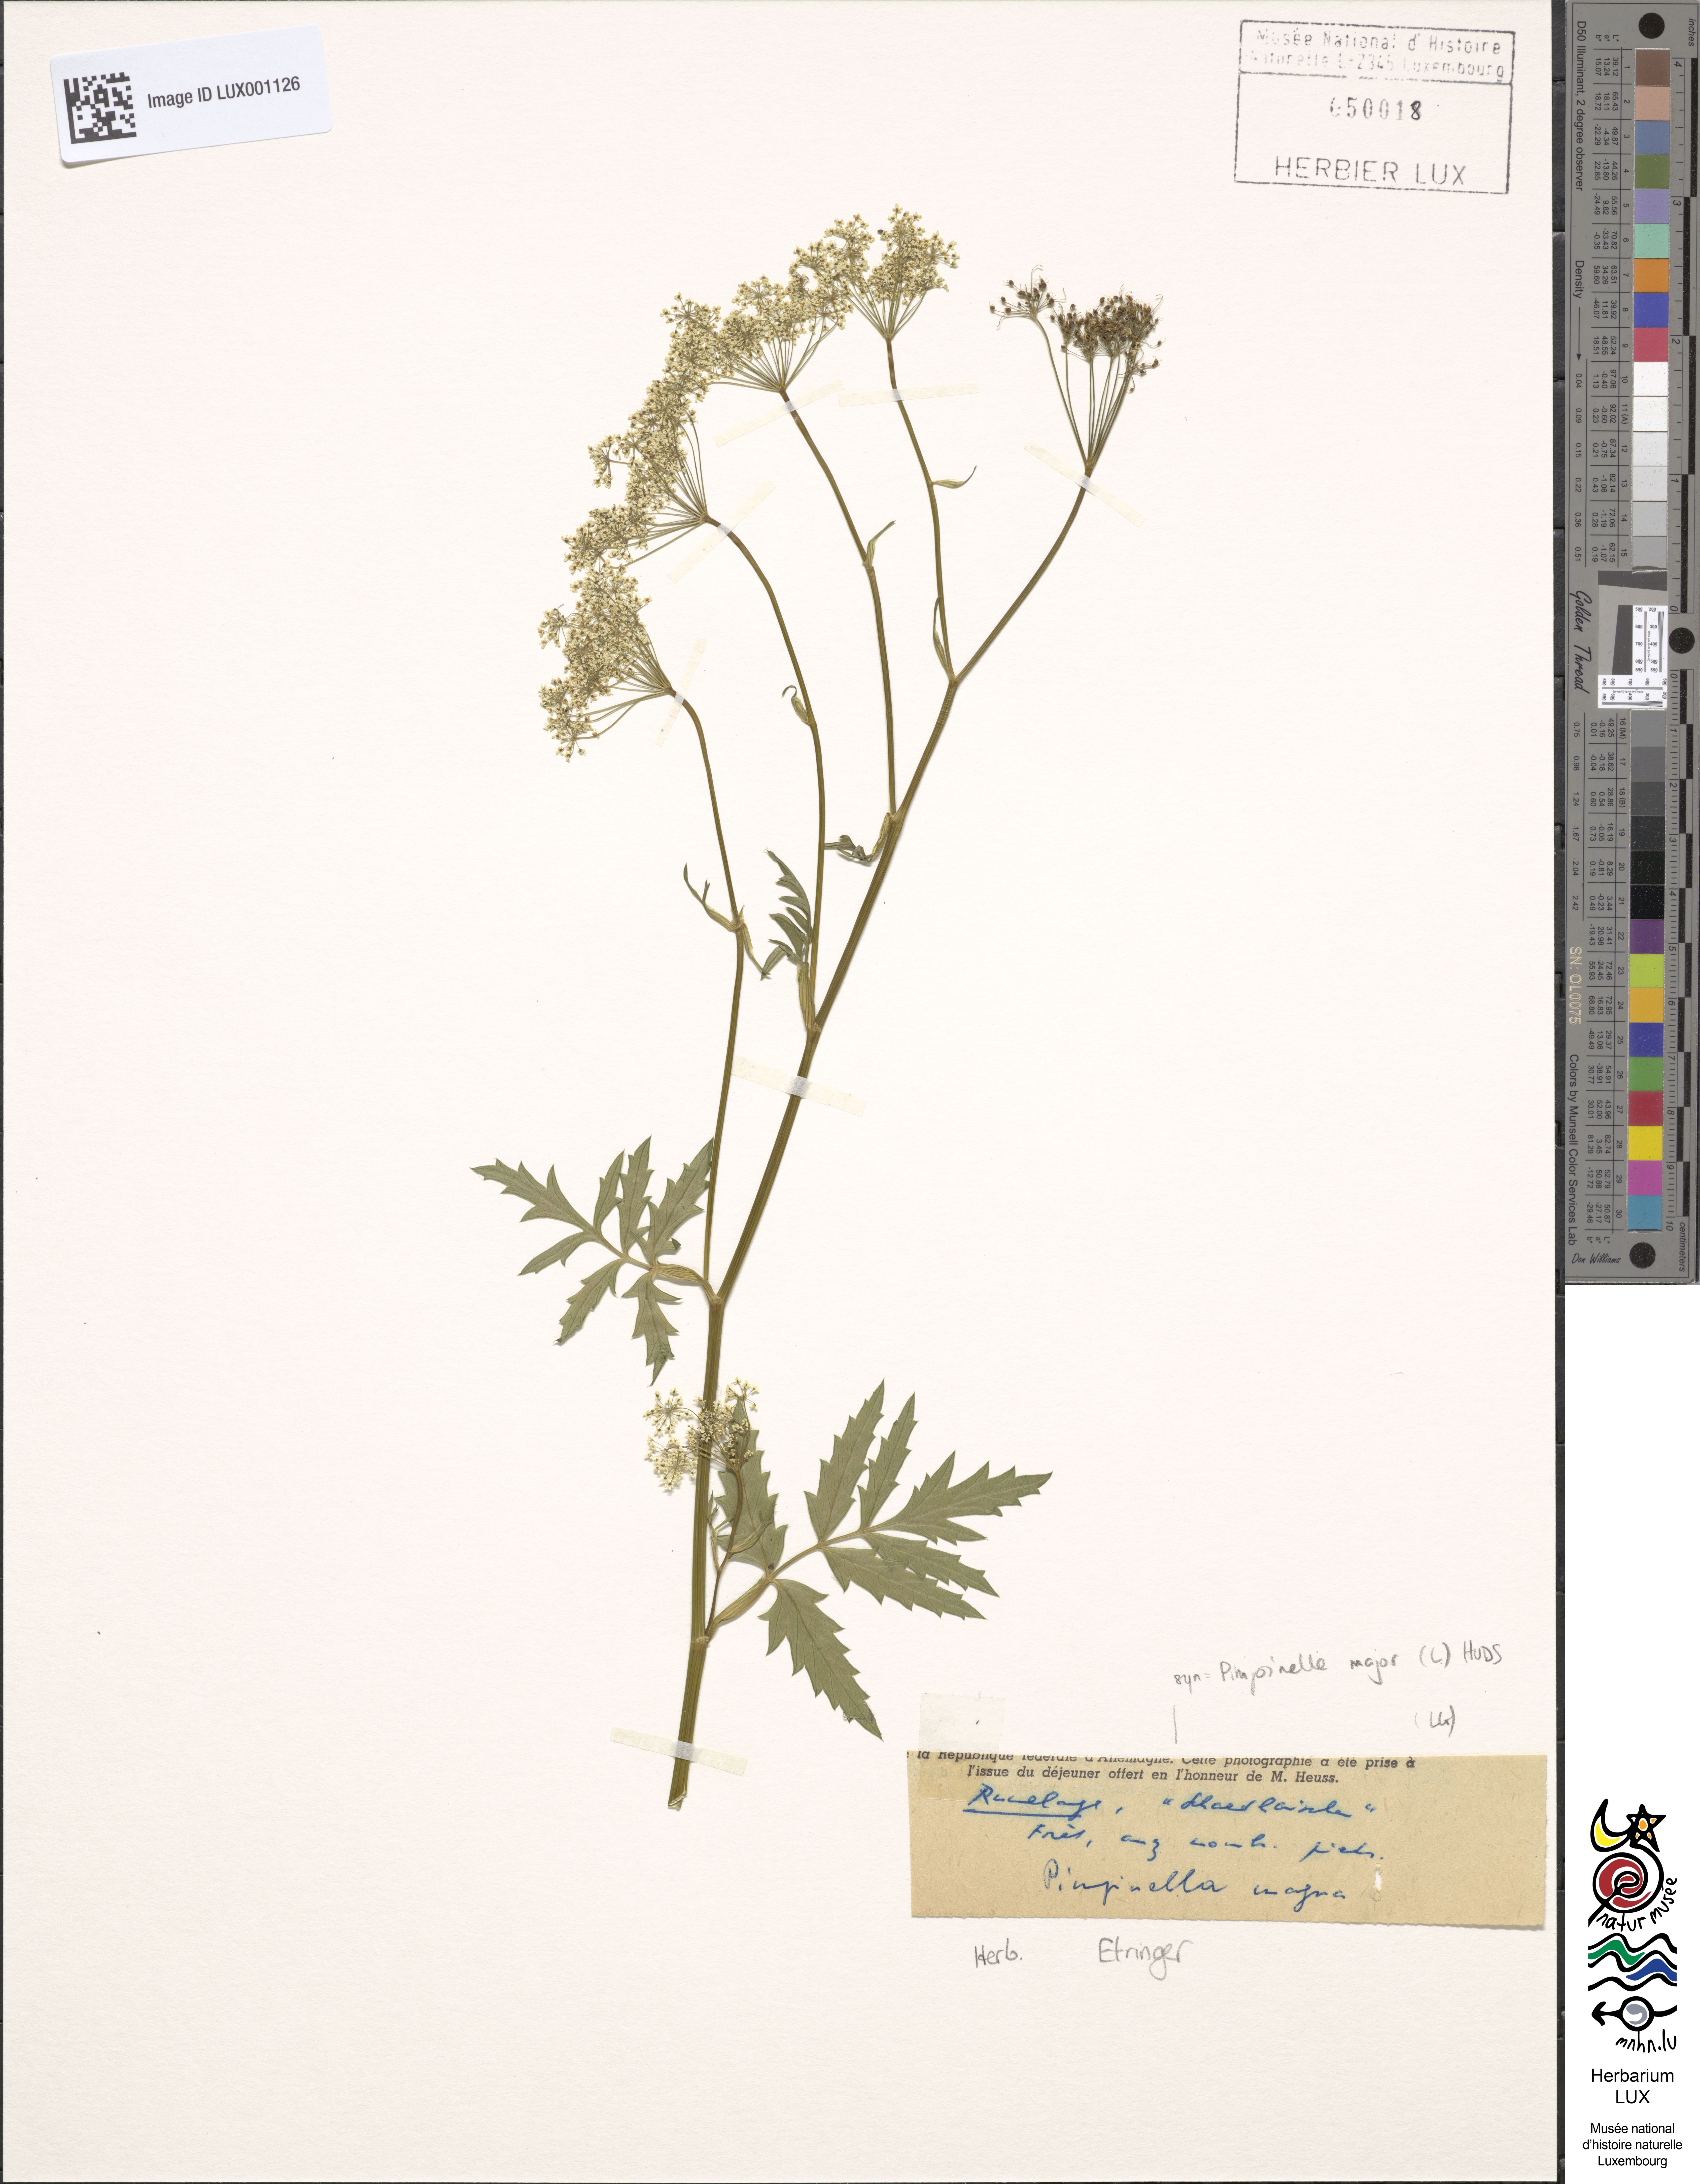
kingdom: Plantae
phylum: Tracheophyta
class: Magnoliopsida
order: Apiales
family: Apiaceae
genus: Pimpinella
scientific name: Pimpinella major
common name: Greater burnet-saxifrage
